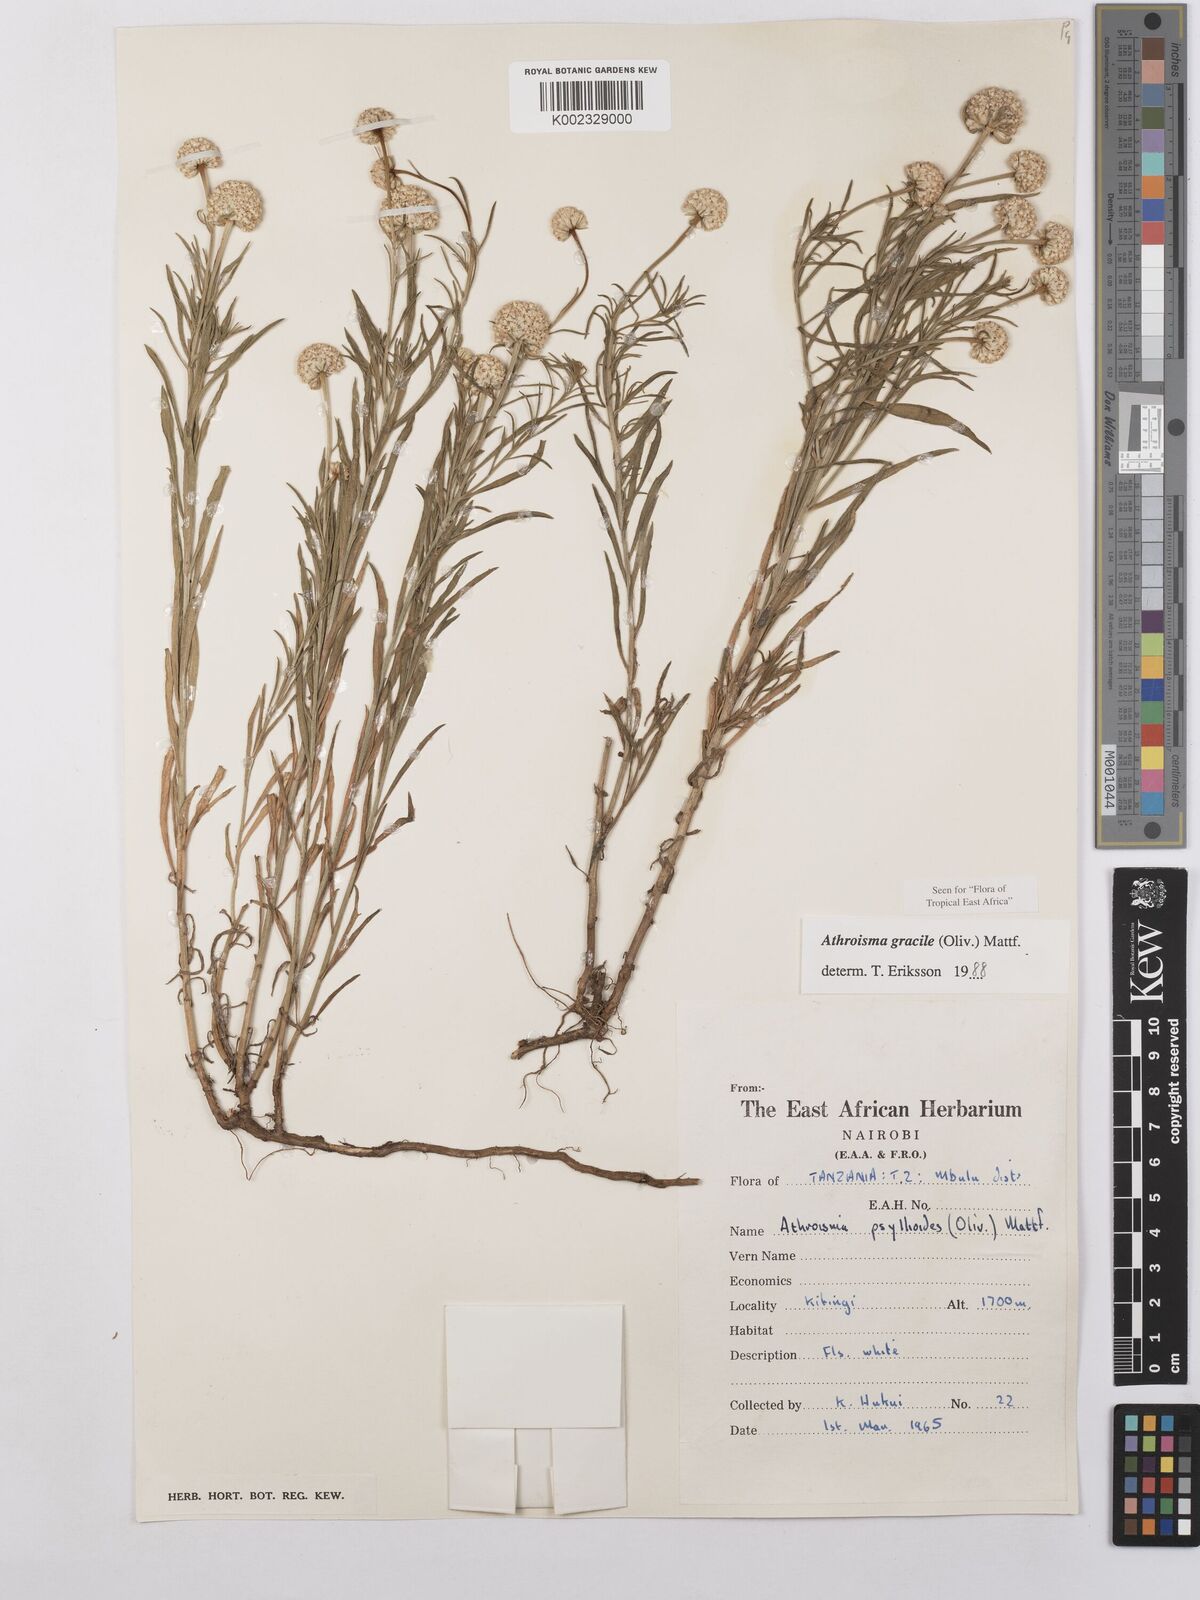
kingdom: Plantae
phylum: Tracheophyta
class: Magnoliopsida
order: Asterales
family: Asteraceae
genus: Athroisma
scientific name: Athroisma gracile
